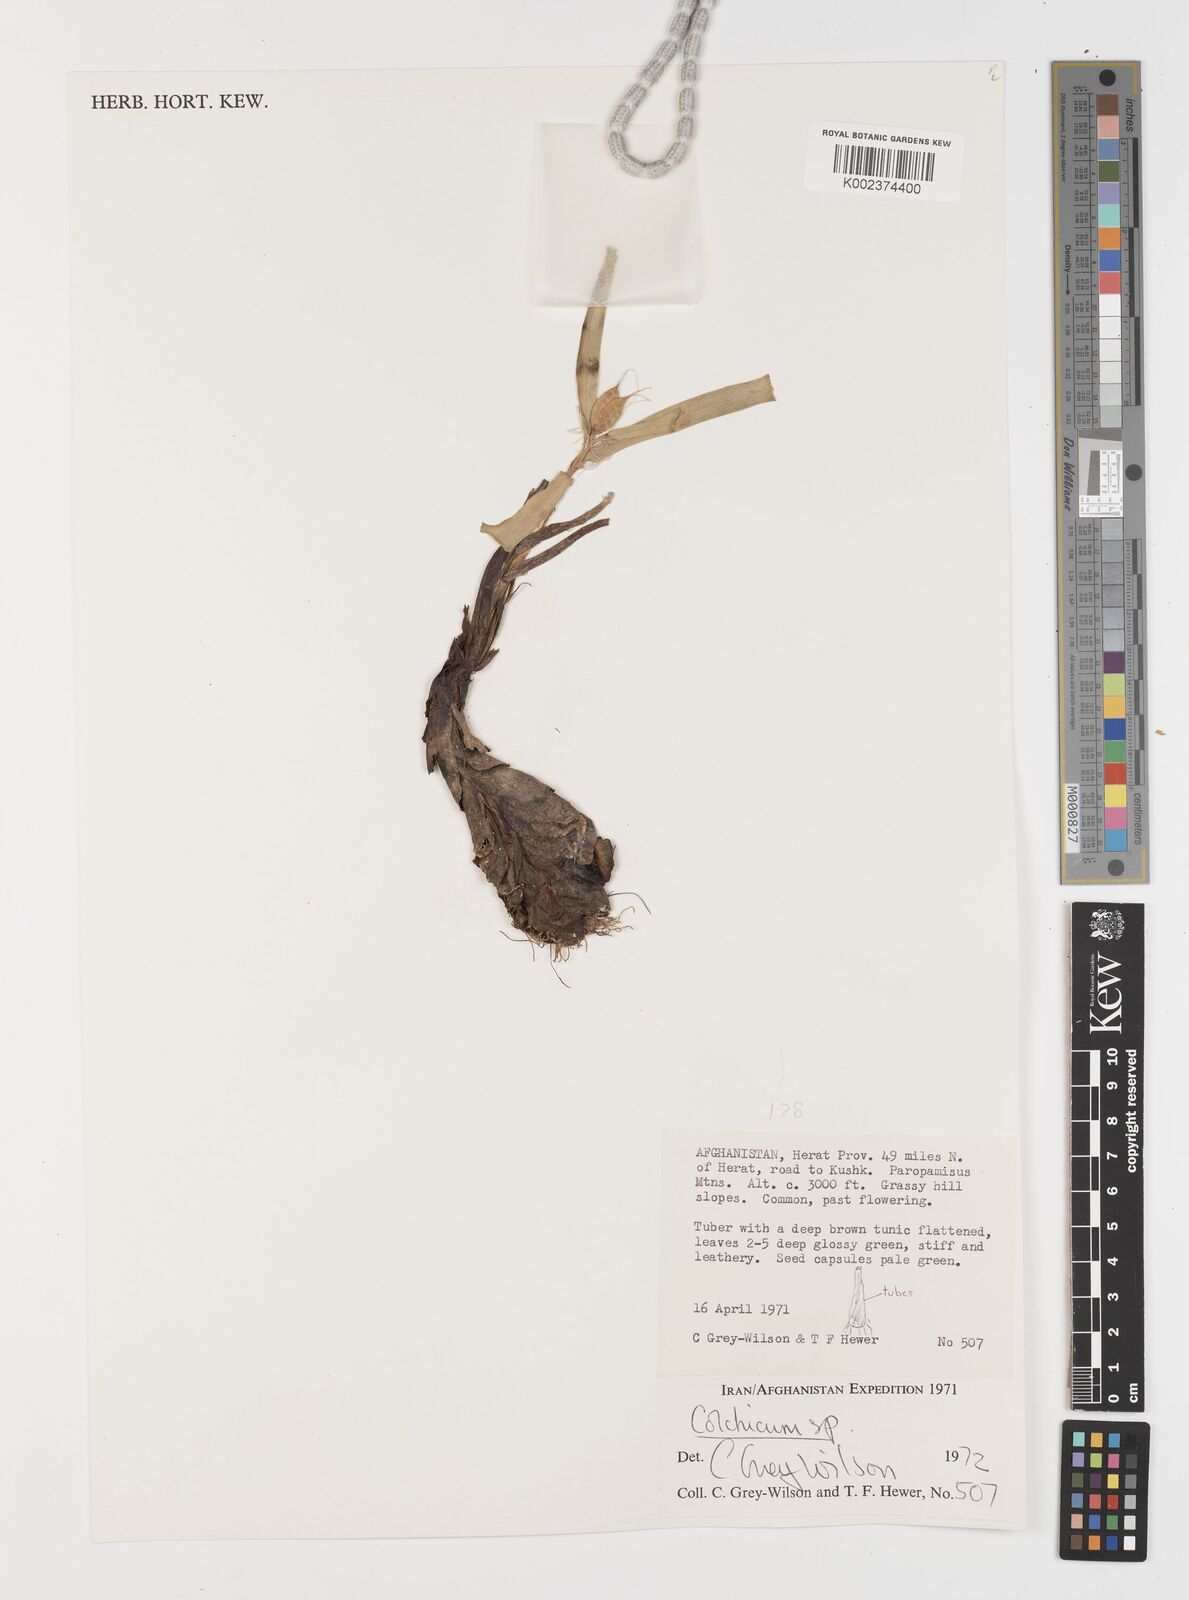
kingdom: Plantae
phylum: Tracheophyta
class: Liliopsida
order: Liliales
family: Colchicaceae
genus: Colchicum
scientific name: Colchicum
